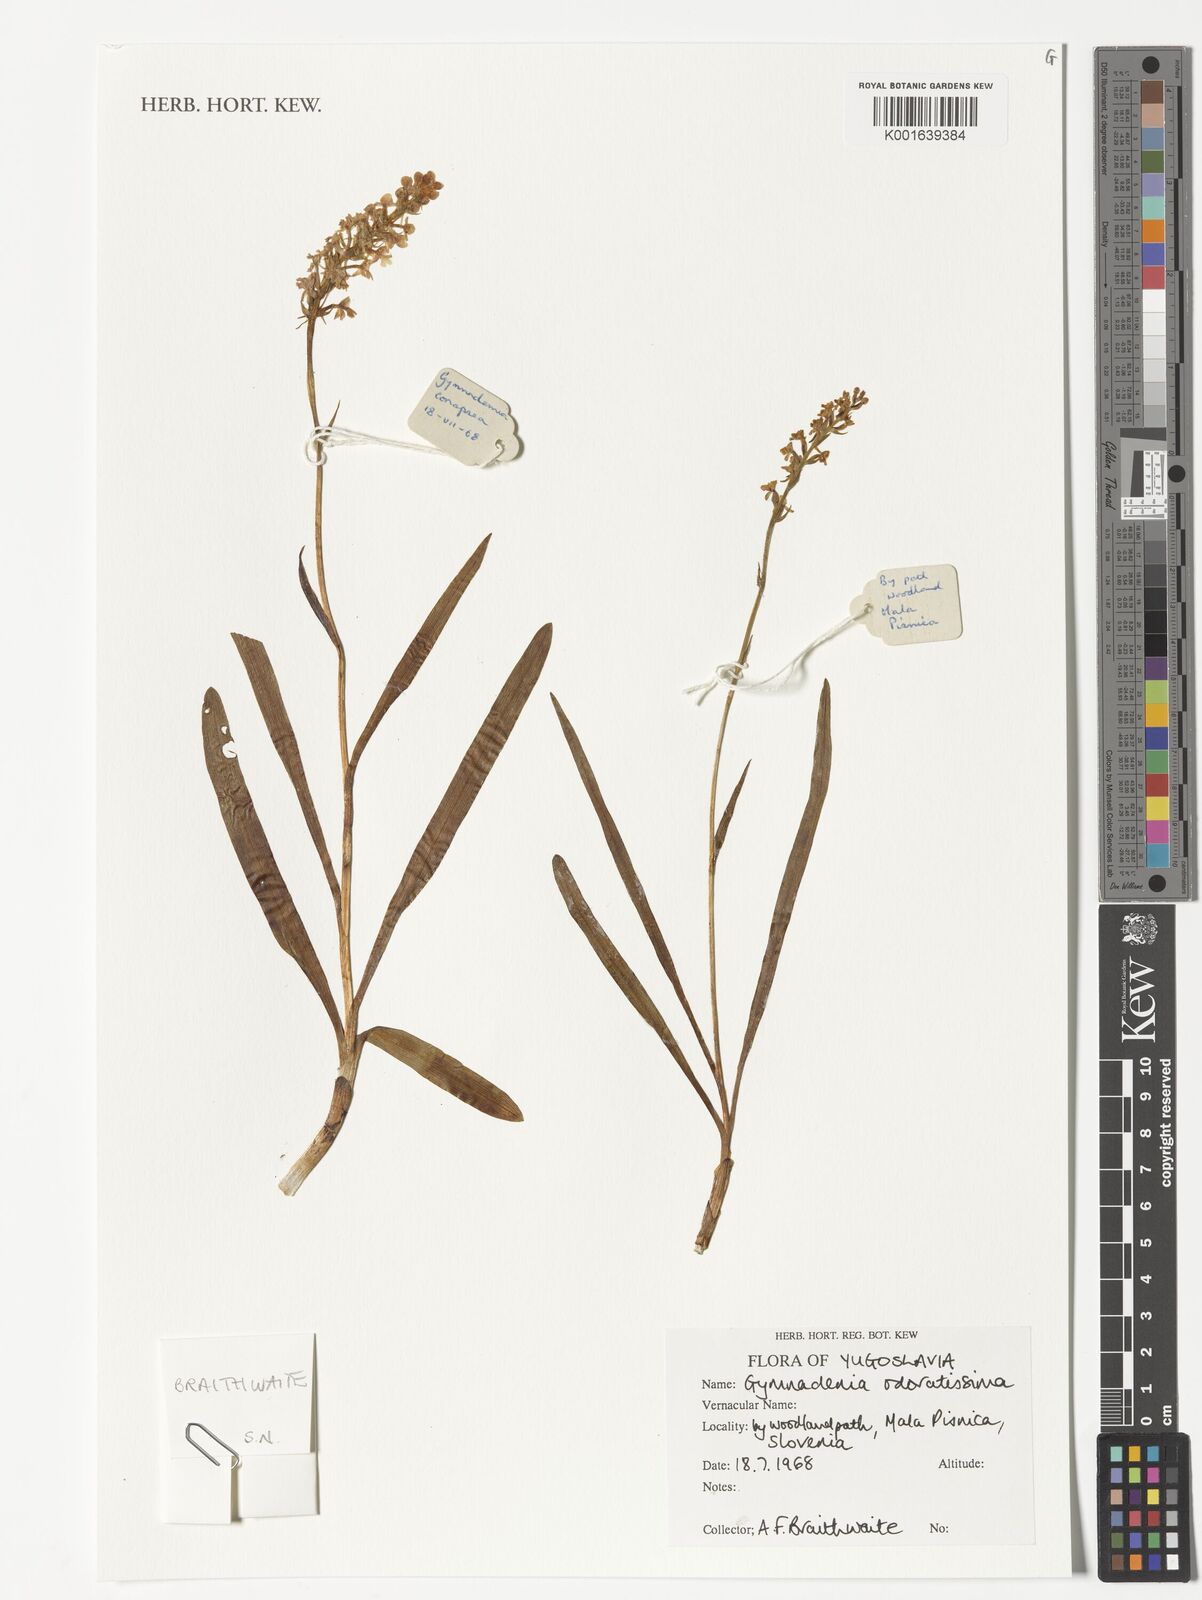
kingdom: Plantae
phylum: Tracheophyta
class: Liliopsida
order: Asparagales
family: Orchidaceae
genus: Gymnadenia
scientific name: Gymnadenia odoratissima
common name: Scented gymnadenia
